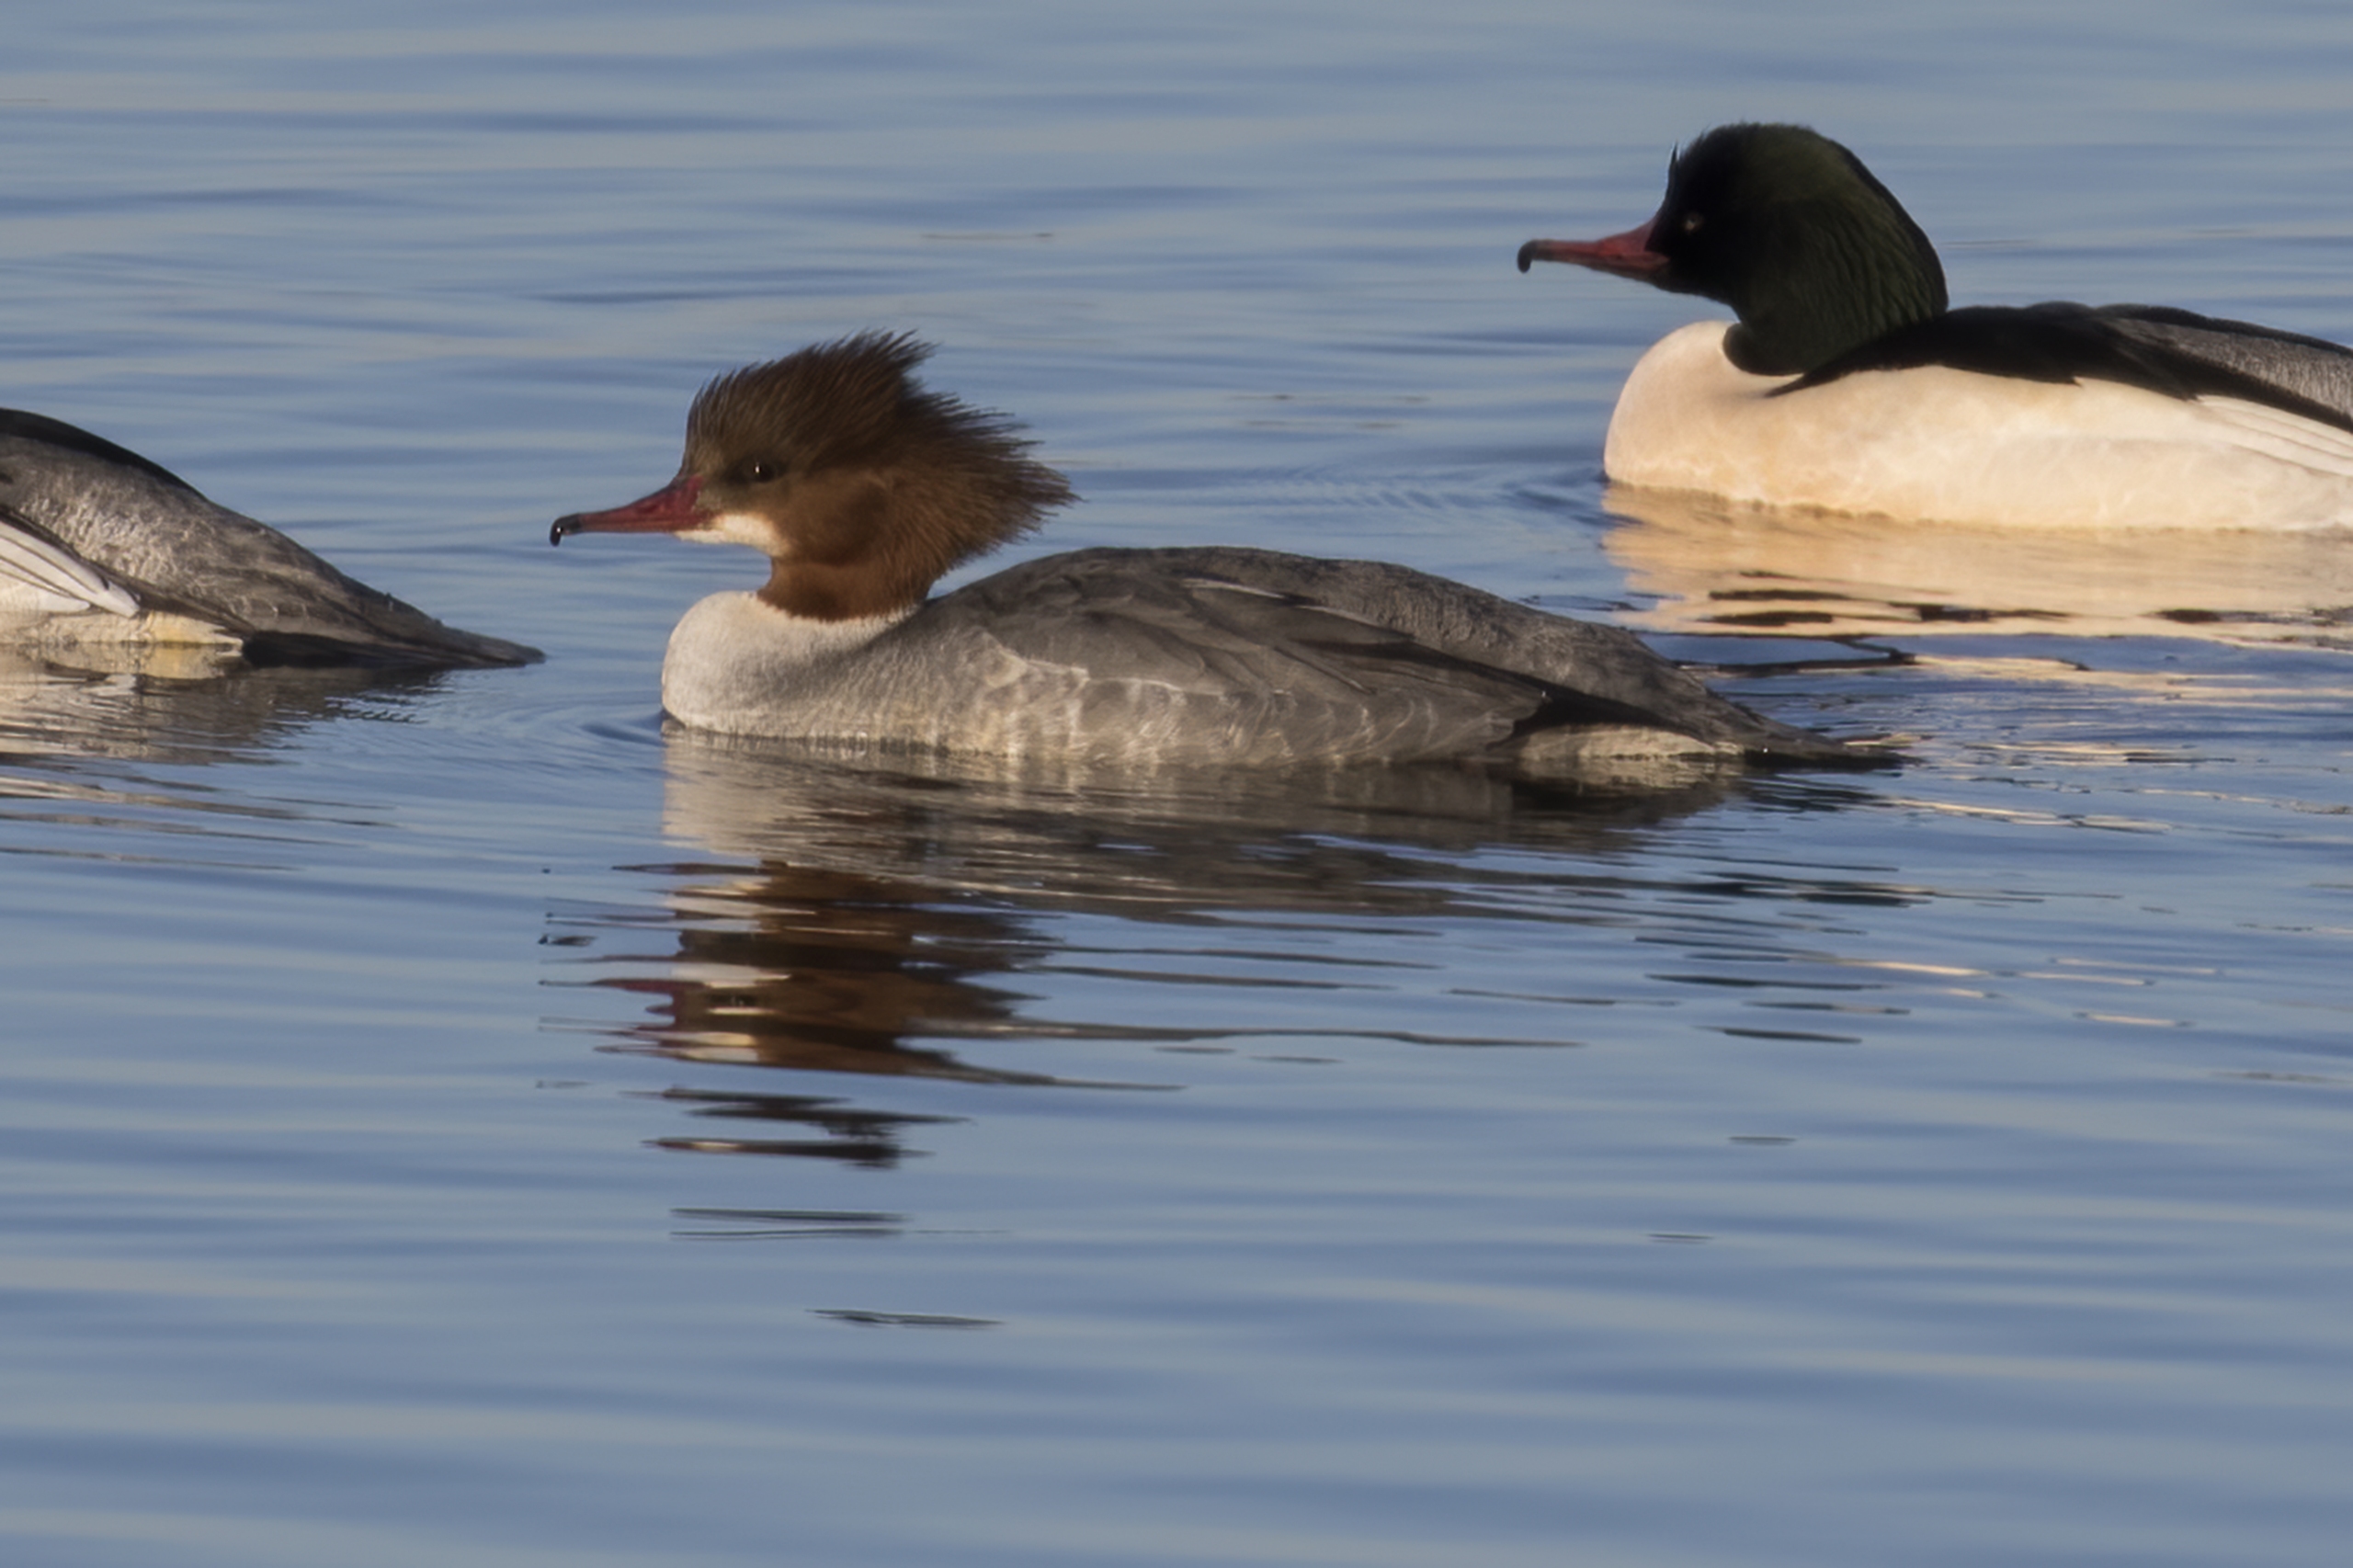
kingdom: Animalia
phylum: Chordata
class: Aves
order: Anseriformes
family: Anatidae
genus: Mergus
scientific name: Mergus merganser
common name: Stor skallesluger
